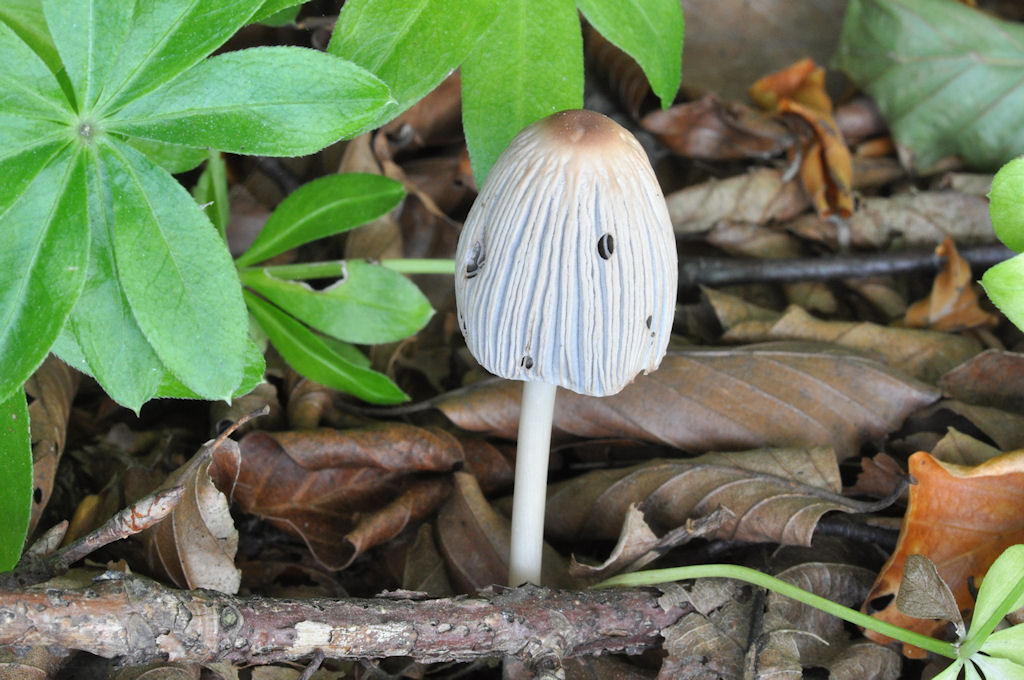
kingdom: Fungi
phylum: Basidiomycota
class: Agaricomycetes
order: Agaricales
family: Psathyrellaceae
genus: Parasola
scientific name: Parasola plicatilis
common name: plæne-hjulhat
